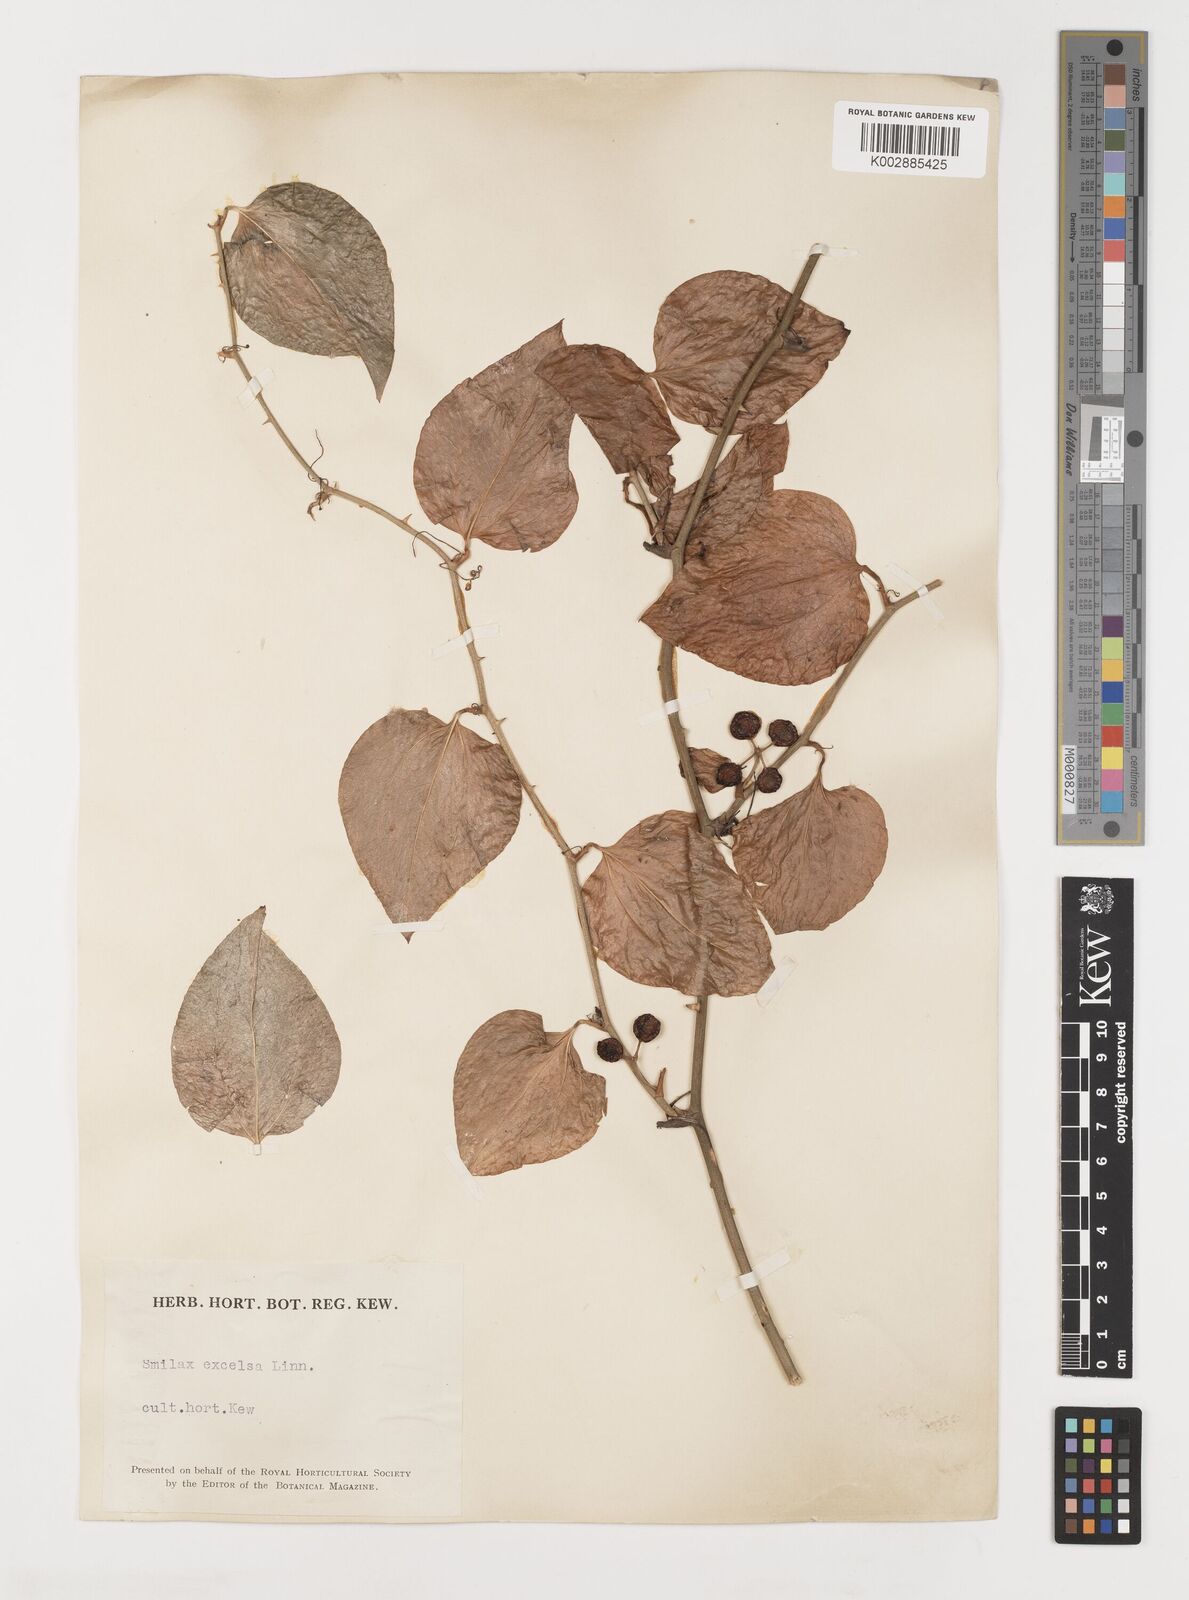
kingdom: Plantae
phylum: Tracheophyta
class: Liliopsida
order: Liliales
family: Smilacaceae
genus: Smilax
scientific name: Smilax excelsa
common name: Larger smilax
